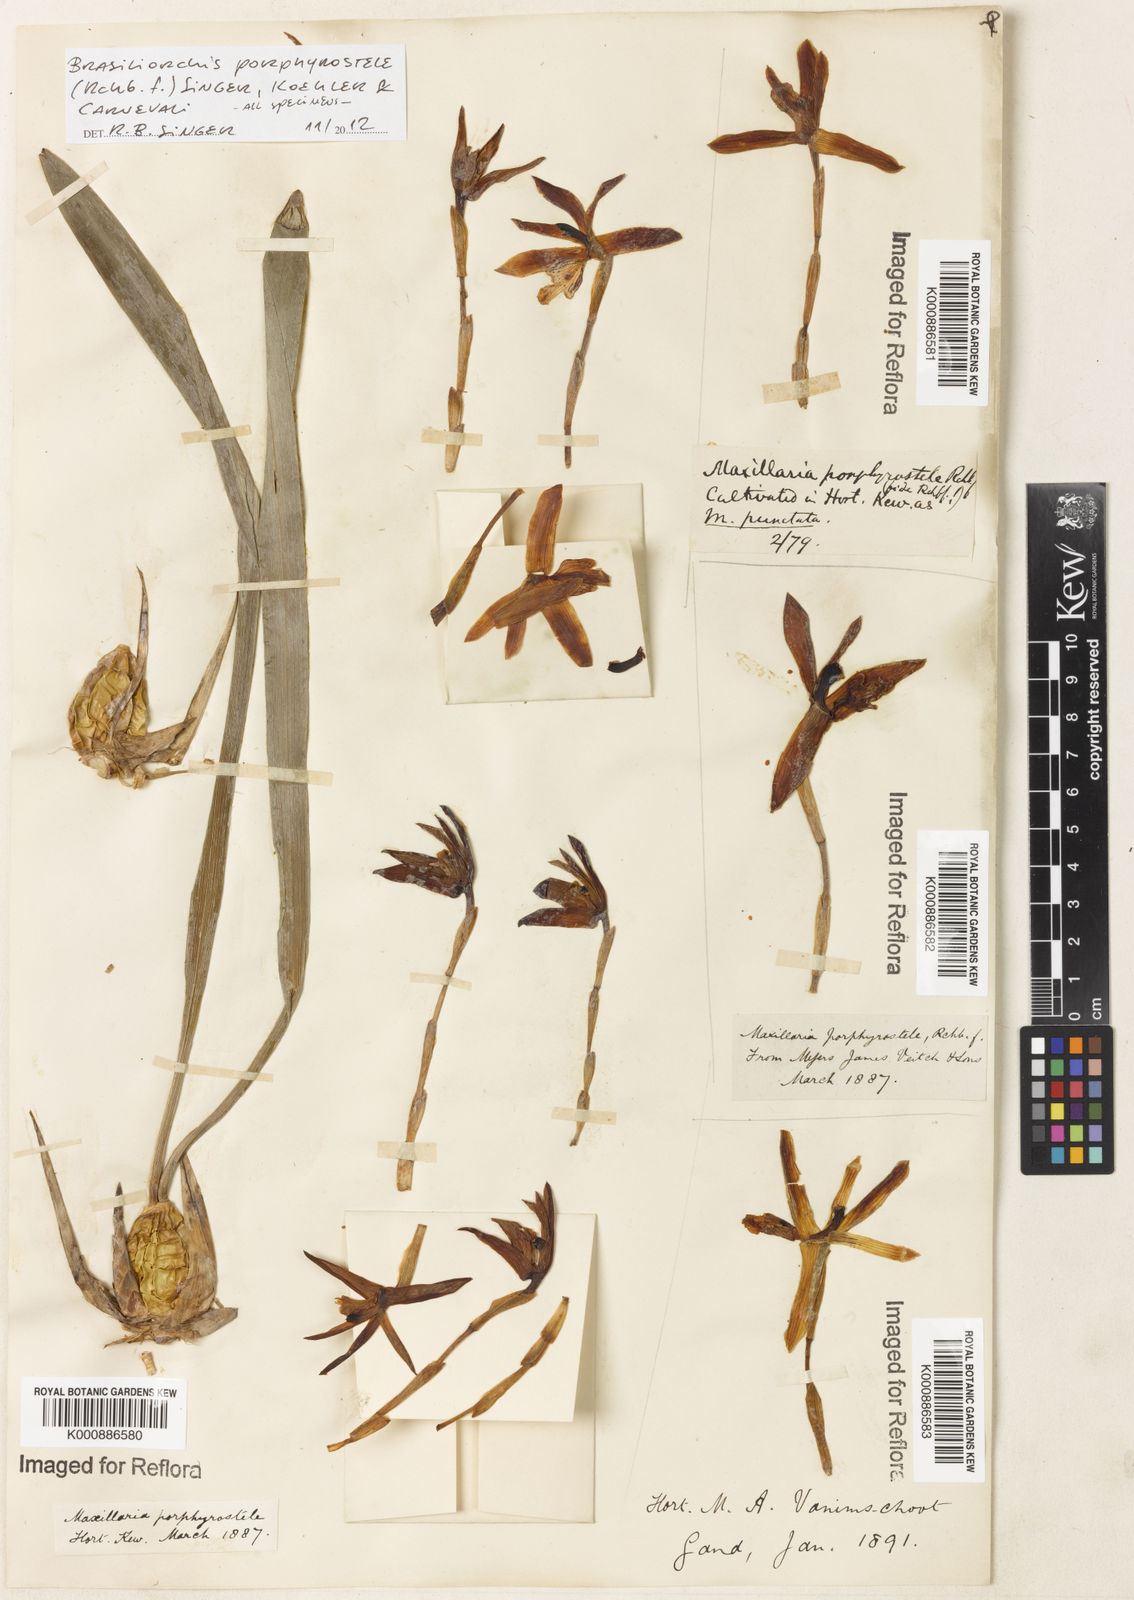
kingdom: Plantae
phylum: Tracheophyta
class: Liliopsida
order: Asparagales
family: Orchidaceae
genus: Maxillaria
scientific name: Maxillaria porphyrostele
